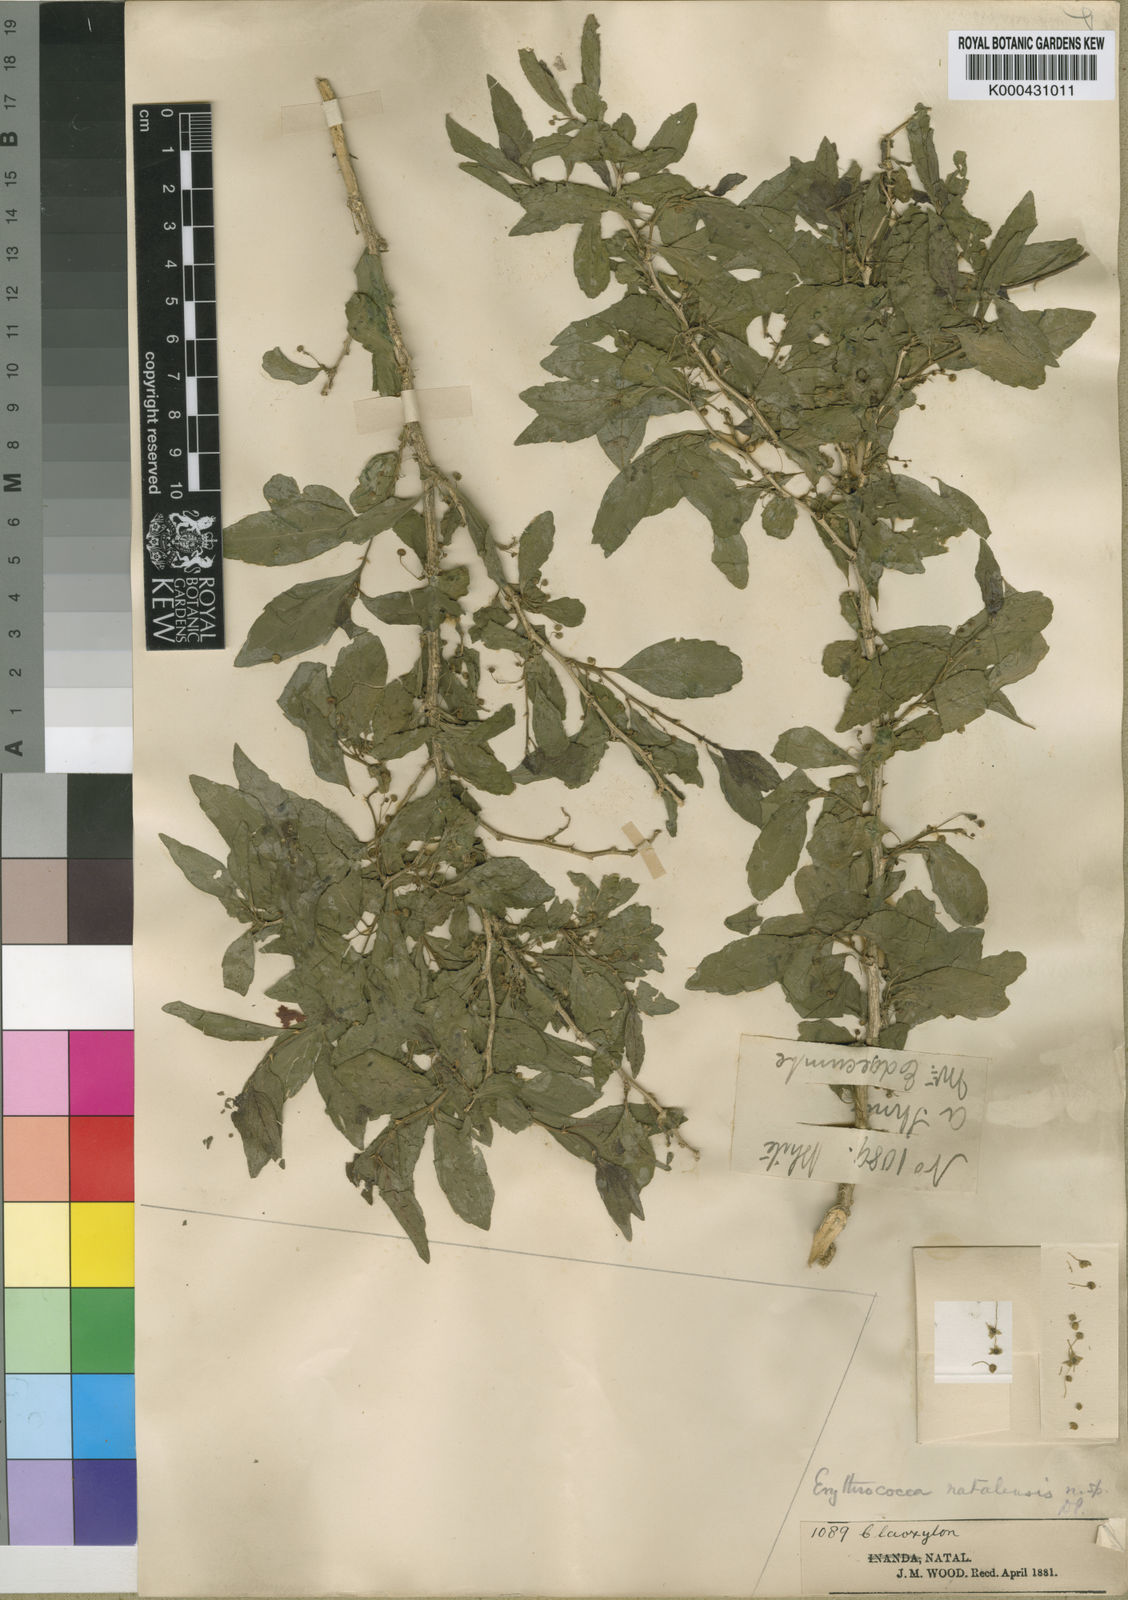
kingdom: Plantae
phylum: Tracheophyta
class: Magnoliopsida
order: Malpighiales
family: Euphorbiaceae
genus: Erythrococca
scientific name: Erythrococca natalensis
